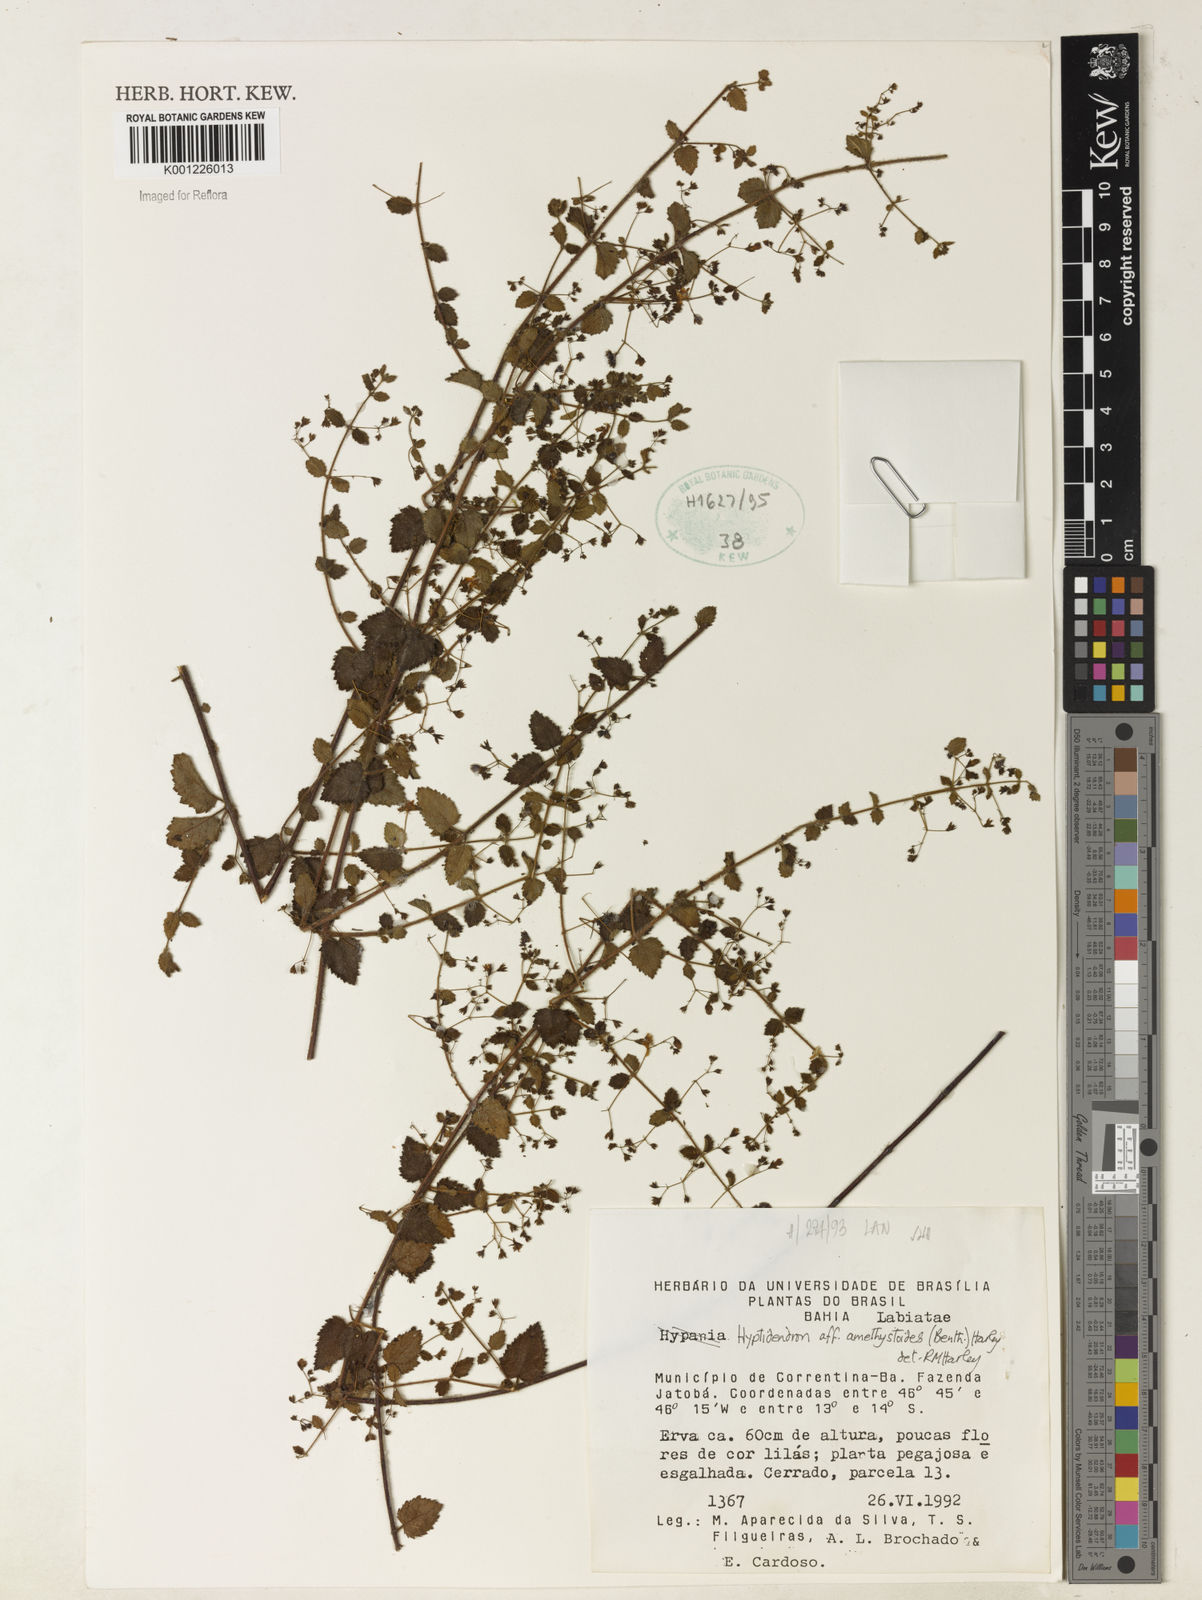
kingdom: Plantae
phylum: Tracheophyta
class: Magnoliopsida
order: Lamiales
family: Lamiaceae
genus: Hyptidendron
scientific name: Hyptidendron amethystoides
